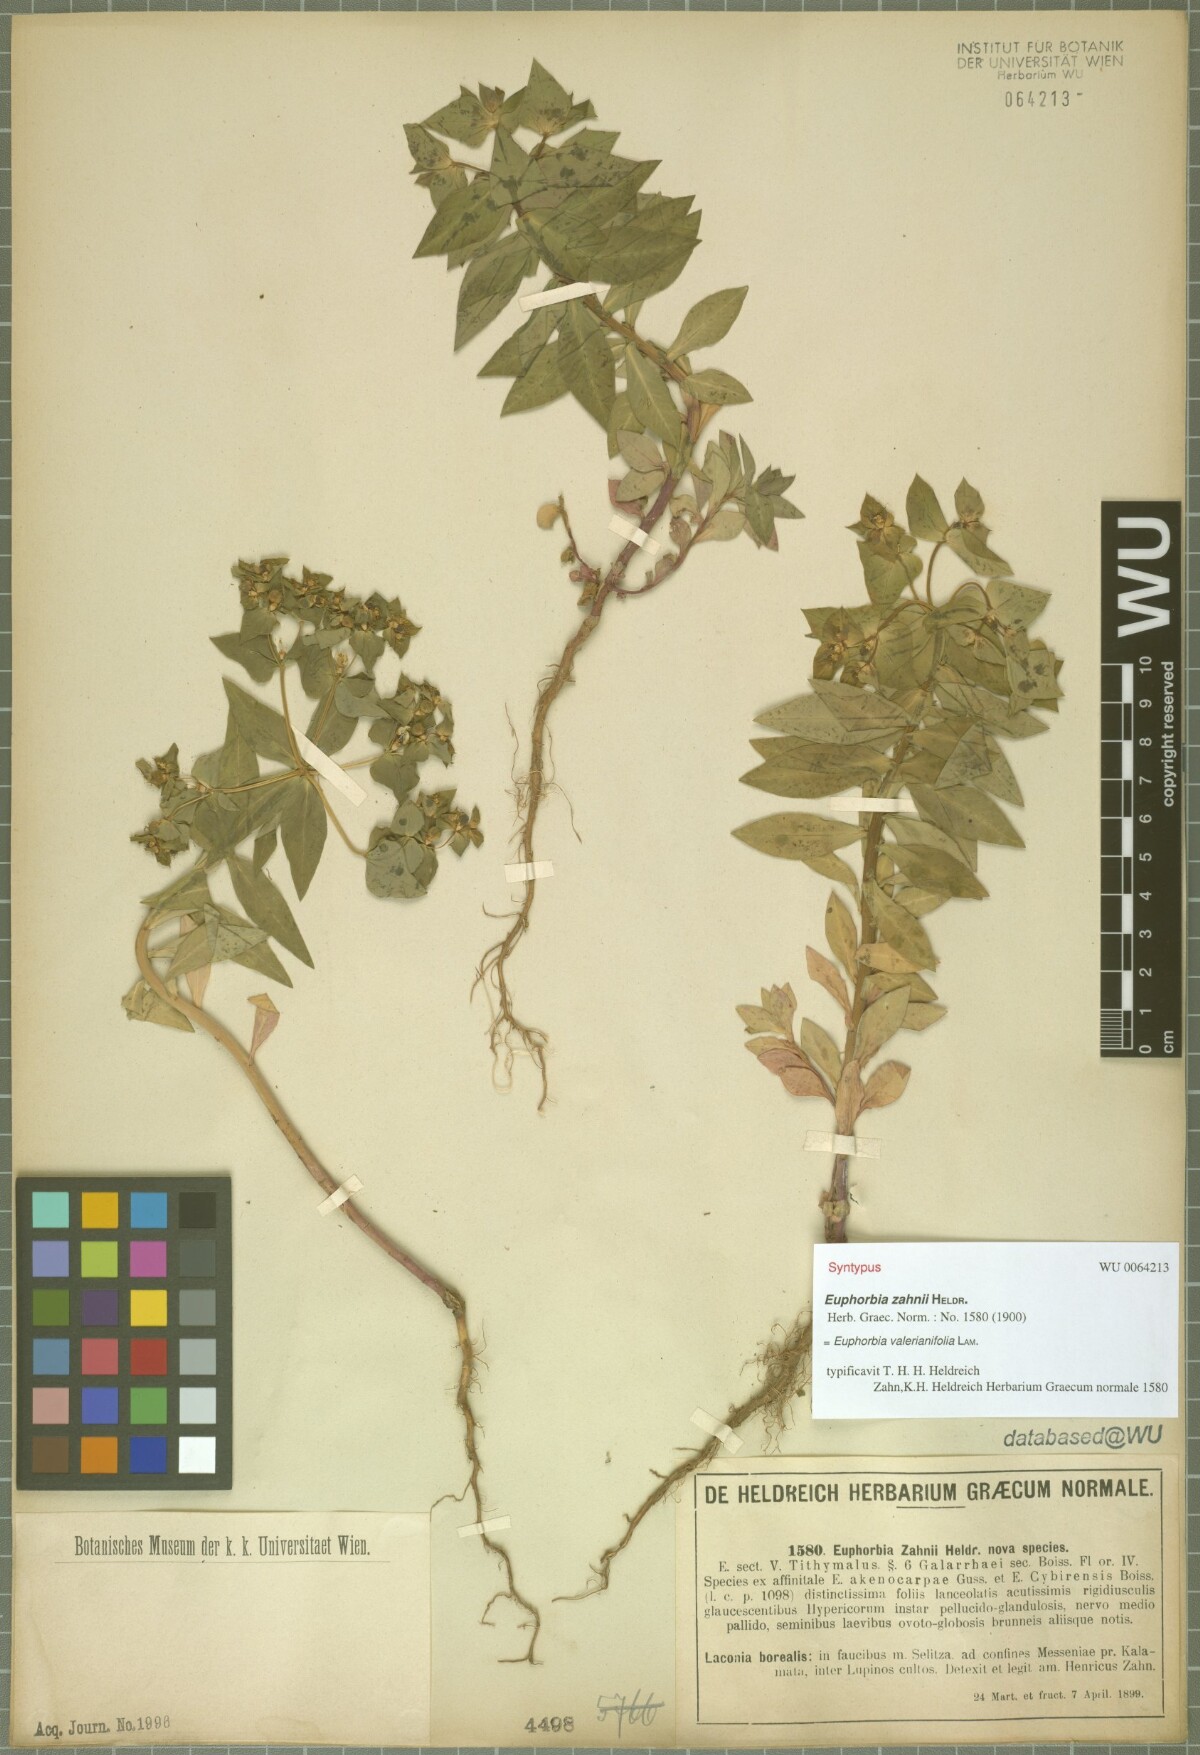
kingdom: Plantae
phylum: Tracheophyta
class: Magnoliopsida
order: Malpighiales
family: Euphorbiaceae
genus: Euphorbia
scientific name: Euphorbia valerianifolia
